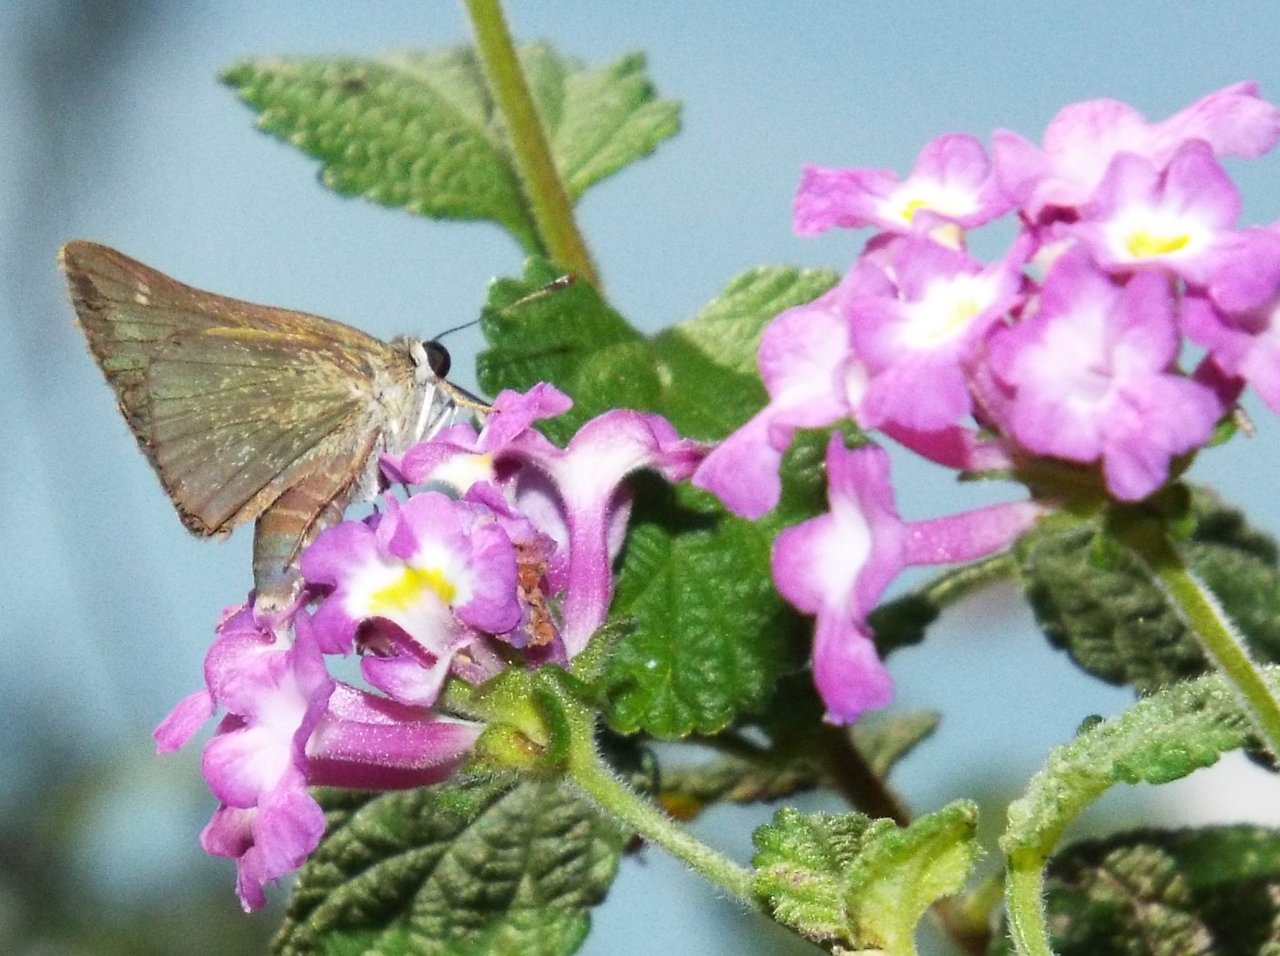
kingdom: Animalia
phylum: Arthropoda
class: Insecta
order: Lepidoptera
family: Hesperiidae
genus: Polites
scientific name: Polites themistocles
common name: Tawny-edged Skipper
